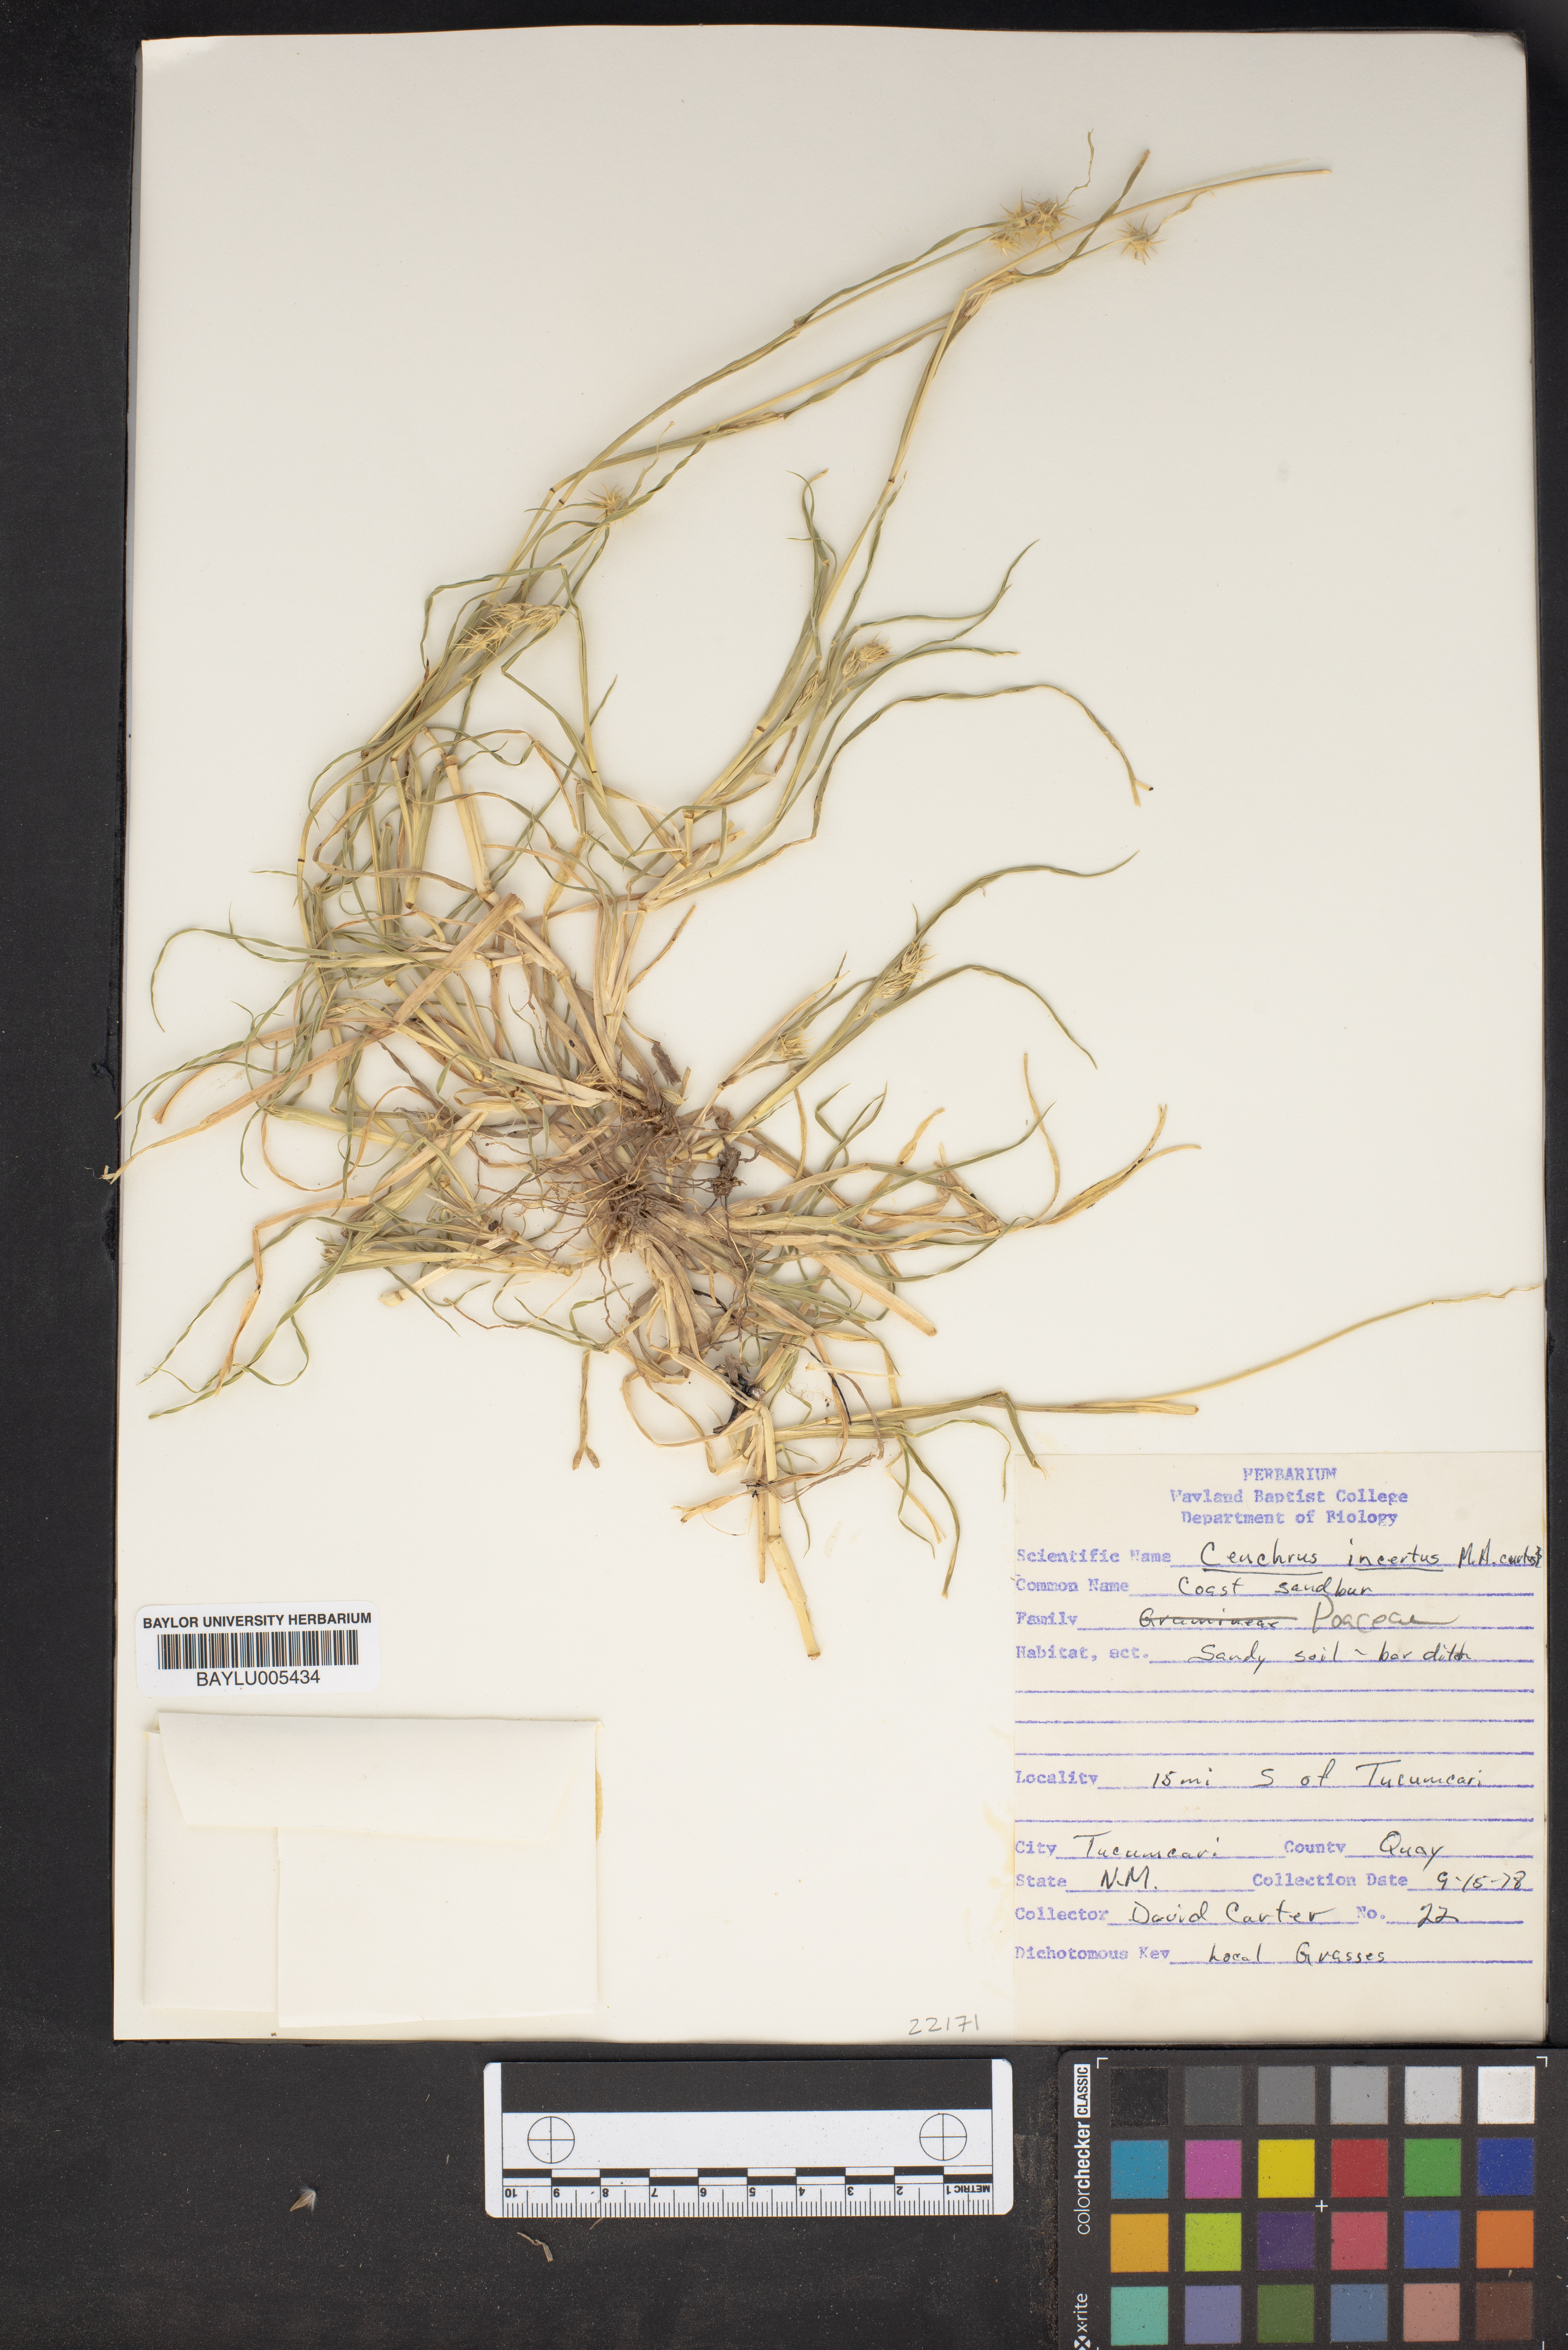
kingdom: Plantae
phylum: Tracheophyta
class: Liliopsida
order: Poales
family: Poaceae
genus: Cenchrus
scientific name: Cenchrus spinifex
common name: Coast sandbur
